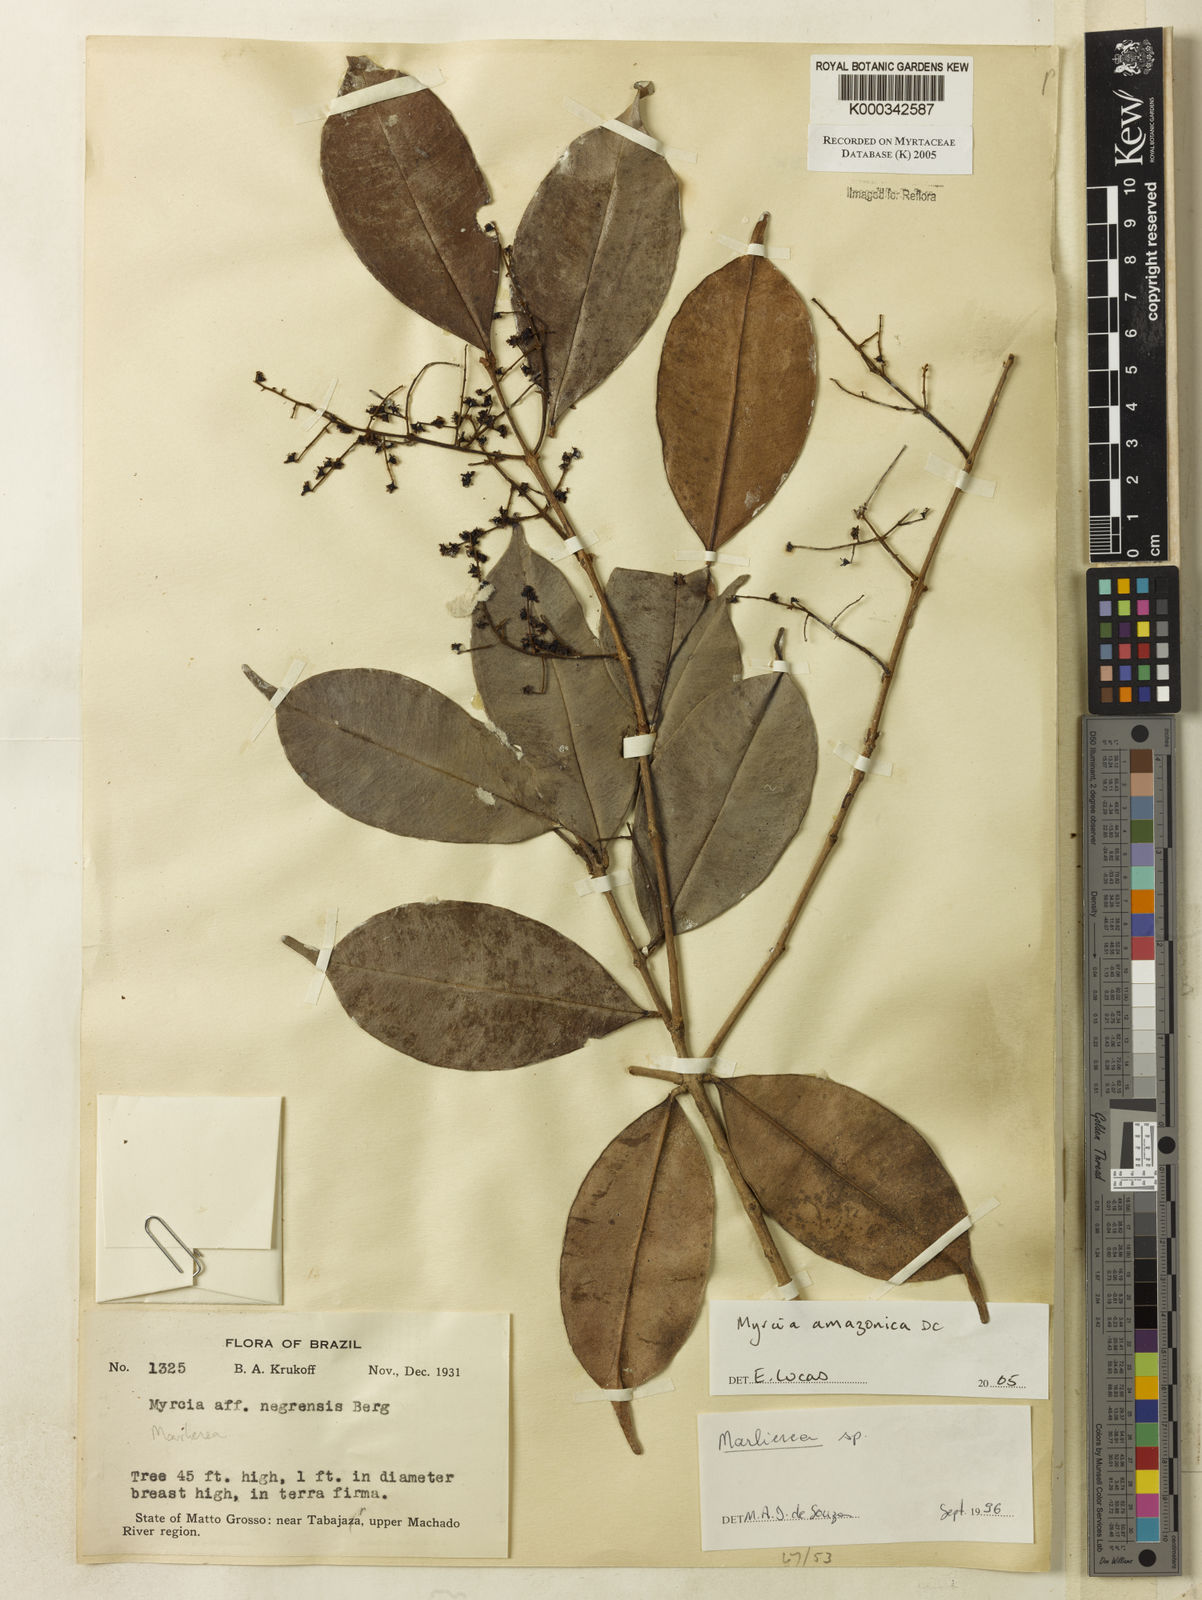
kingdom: Plantae
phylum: Tracheophyta
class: Magnoliopsida
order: Myrtales
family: Myrtaceae
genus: Myrcia
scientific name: Myrcia amazonica
